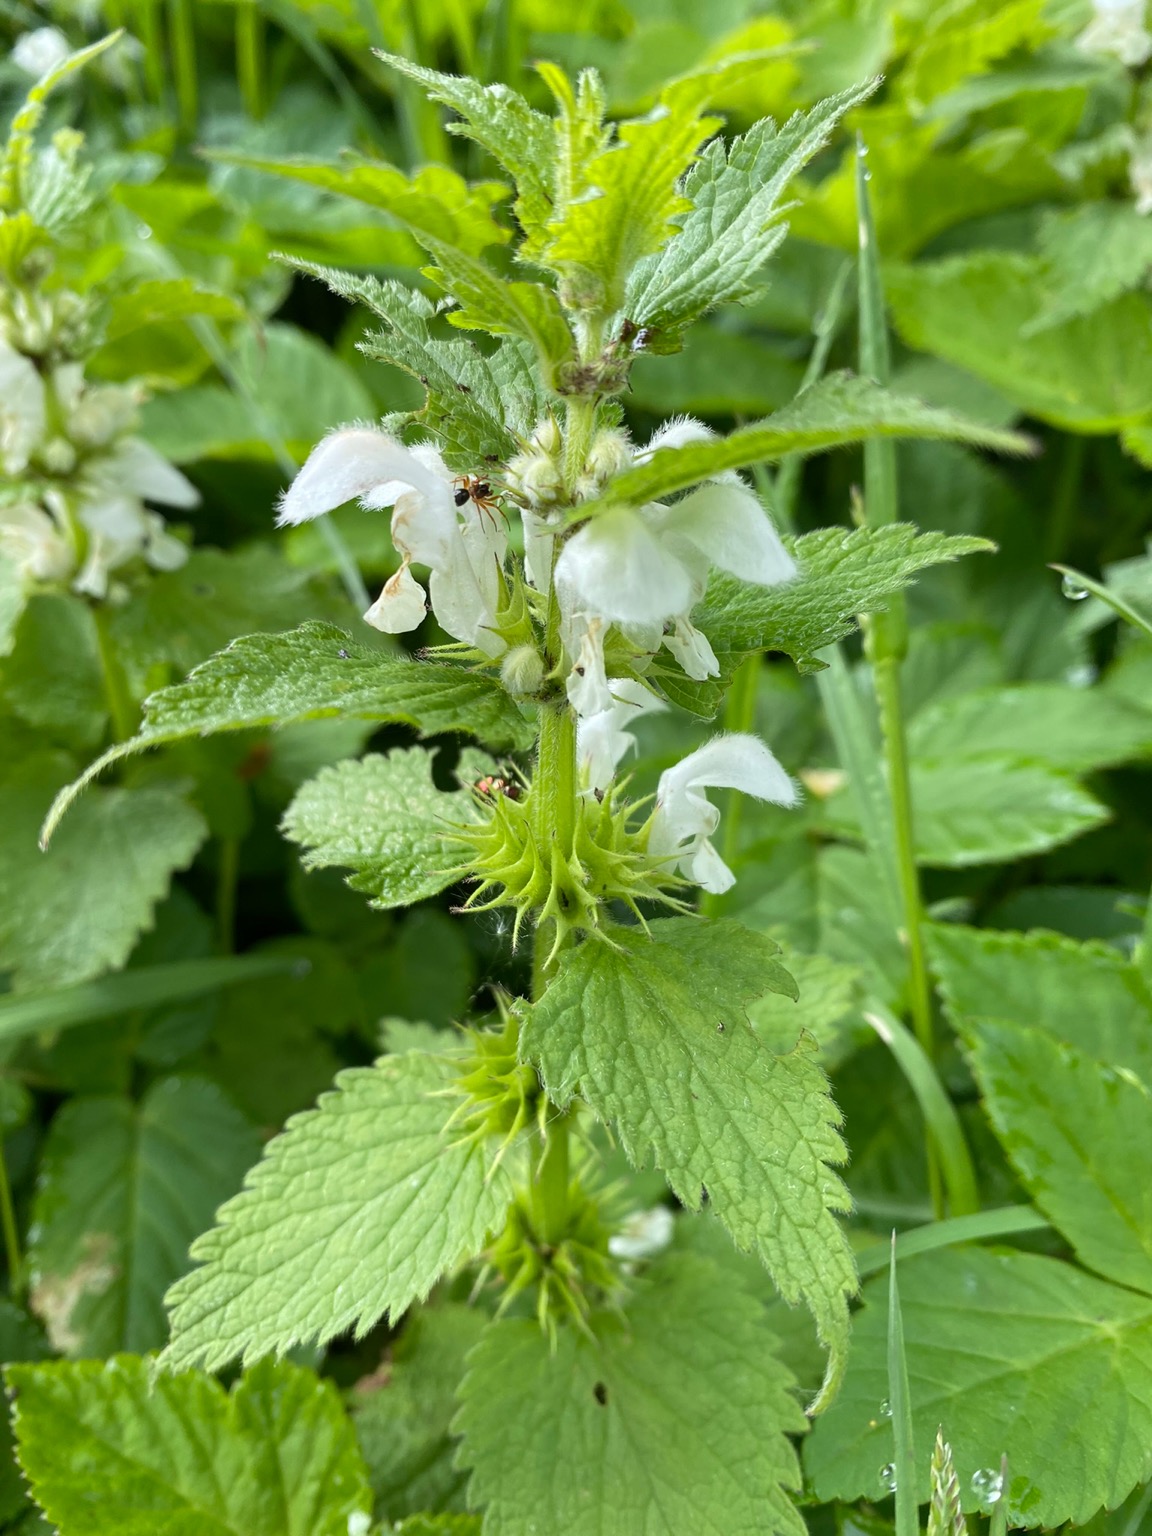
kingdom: Plantae
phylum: Tracheophyta
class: Magnoliopsida
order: Lamiales
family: Lamiaceae
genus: Lamium
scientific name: Lamium album
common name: Døvnælde
